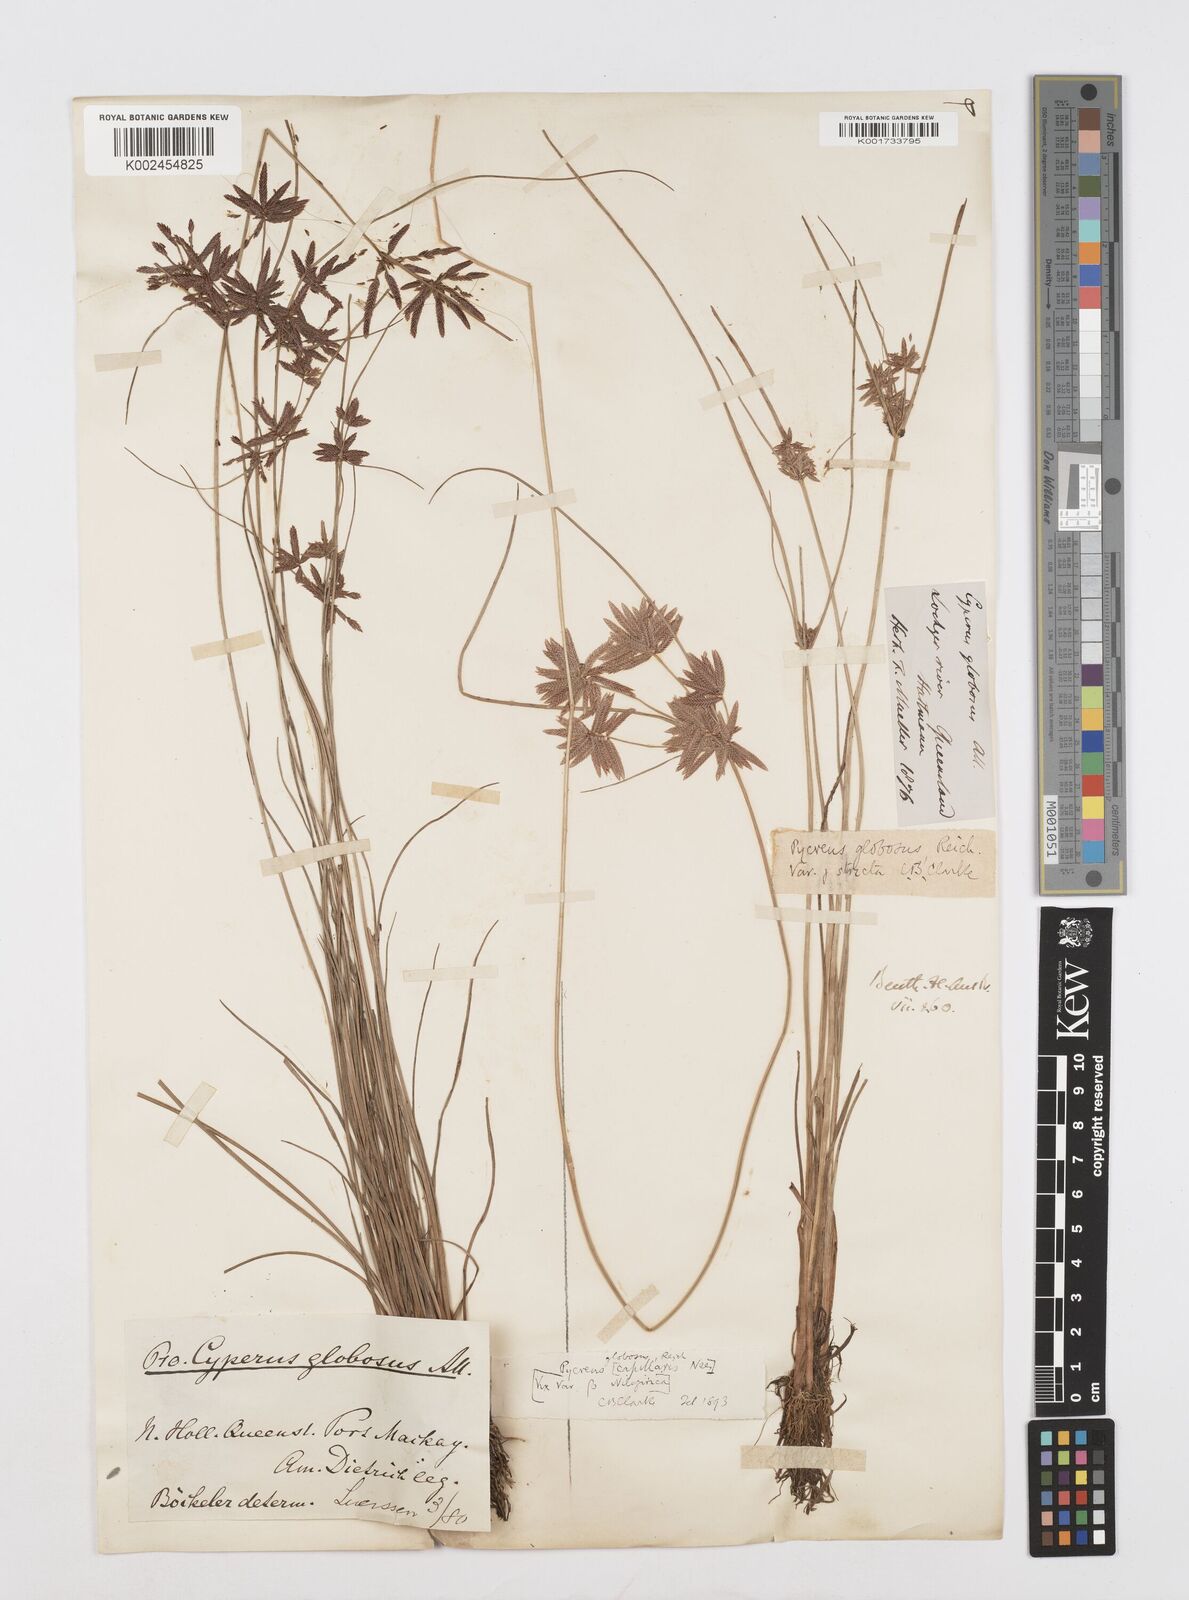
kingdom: Plantae
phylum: Tracheophyta
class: Liliopsida
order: Poales
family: Cyperaceae
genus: Cyperus
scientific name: Cyperus flavidus
